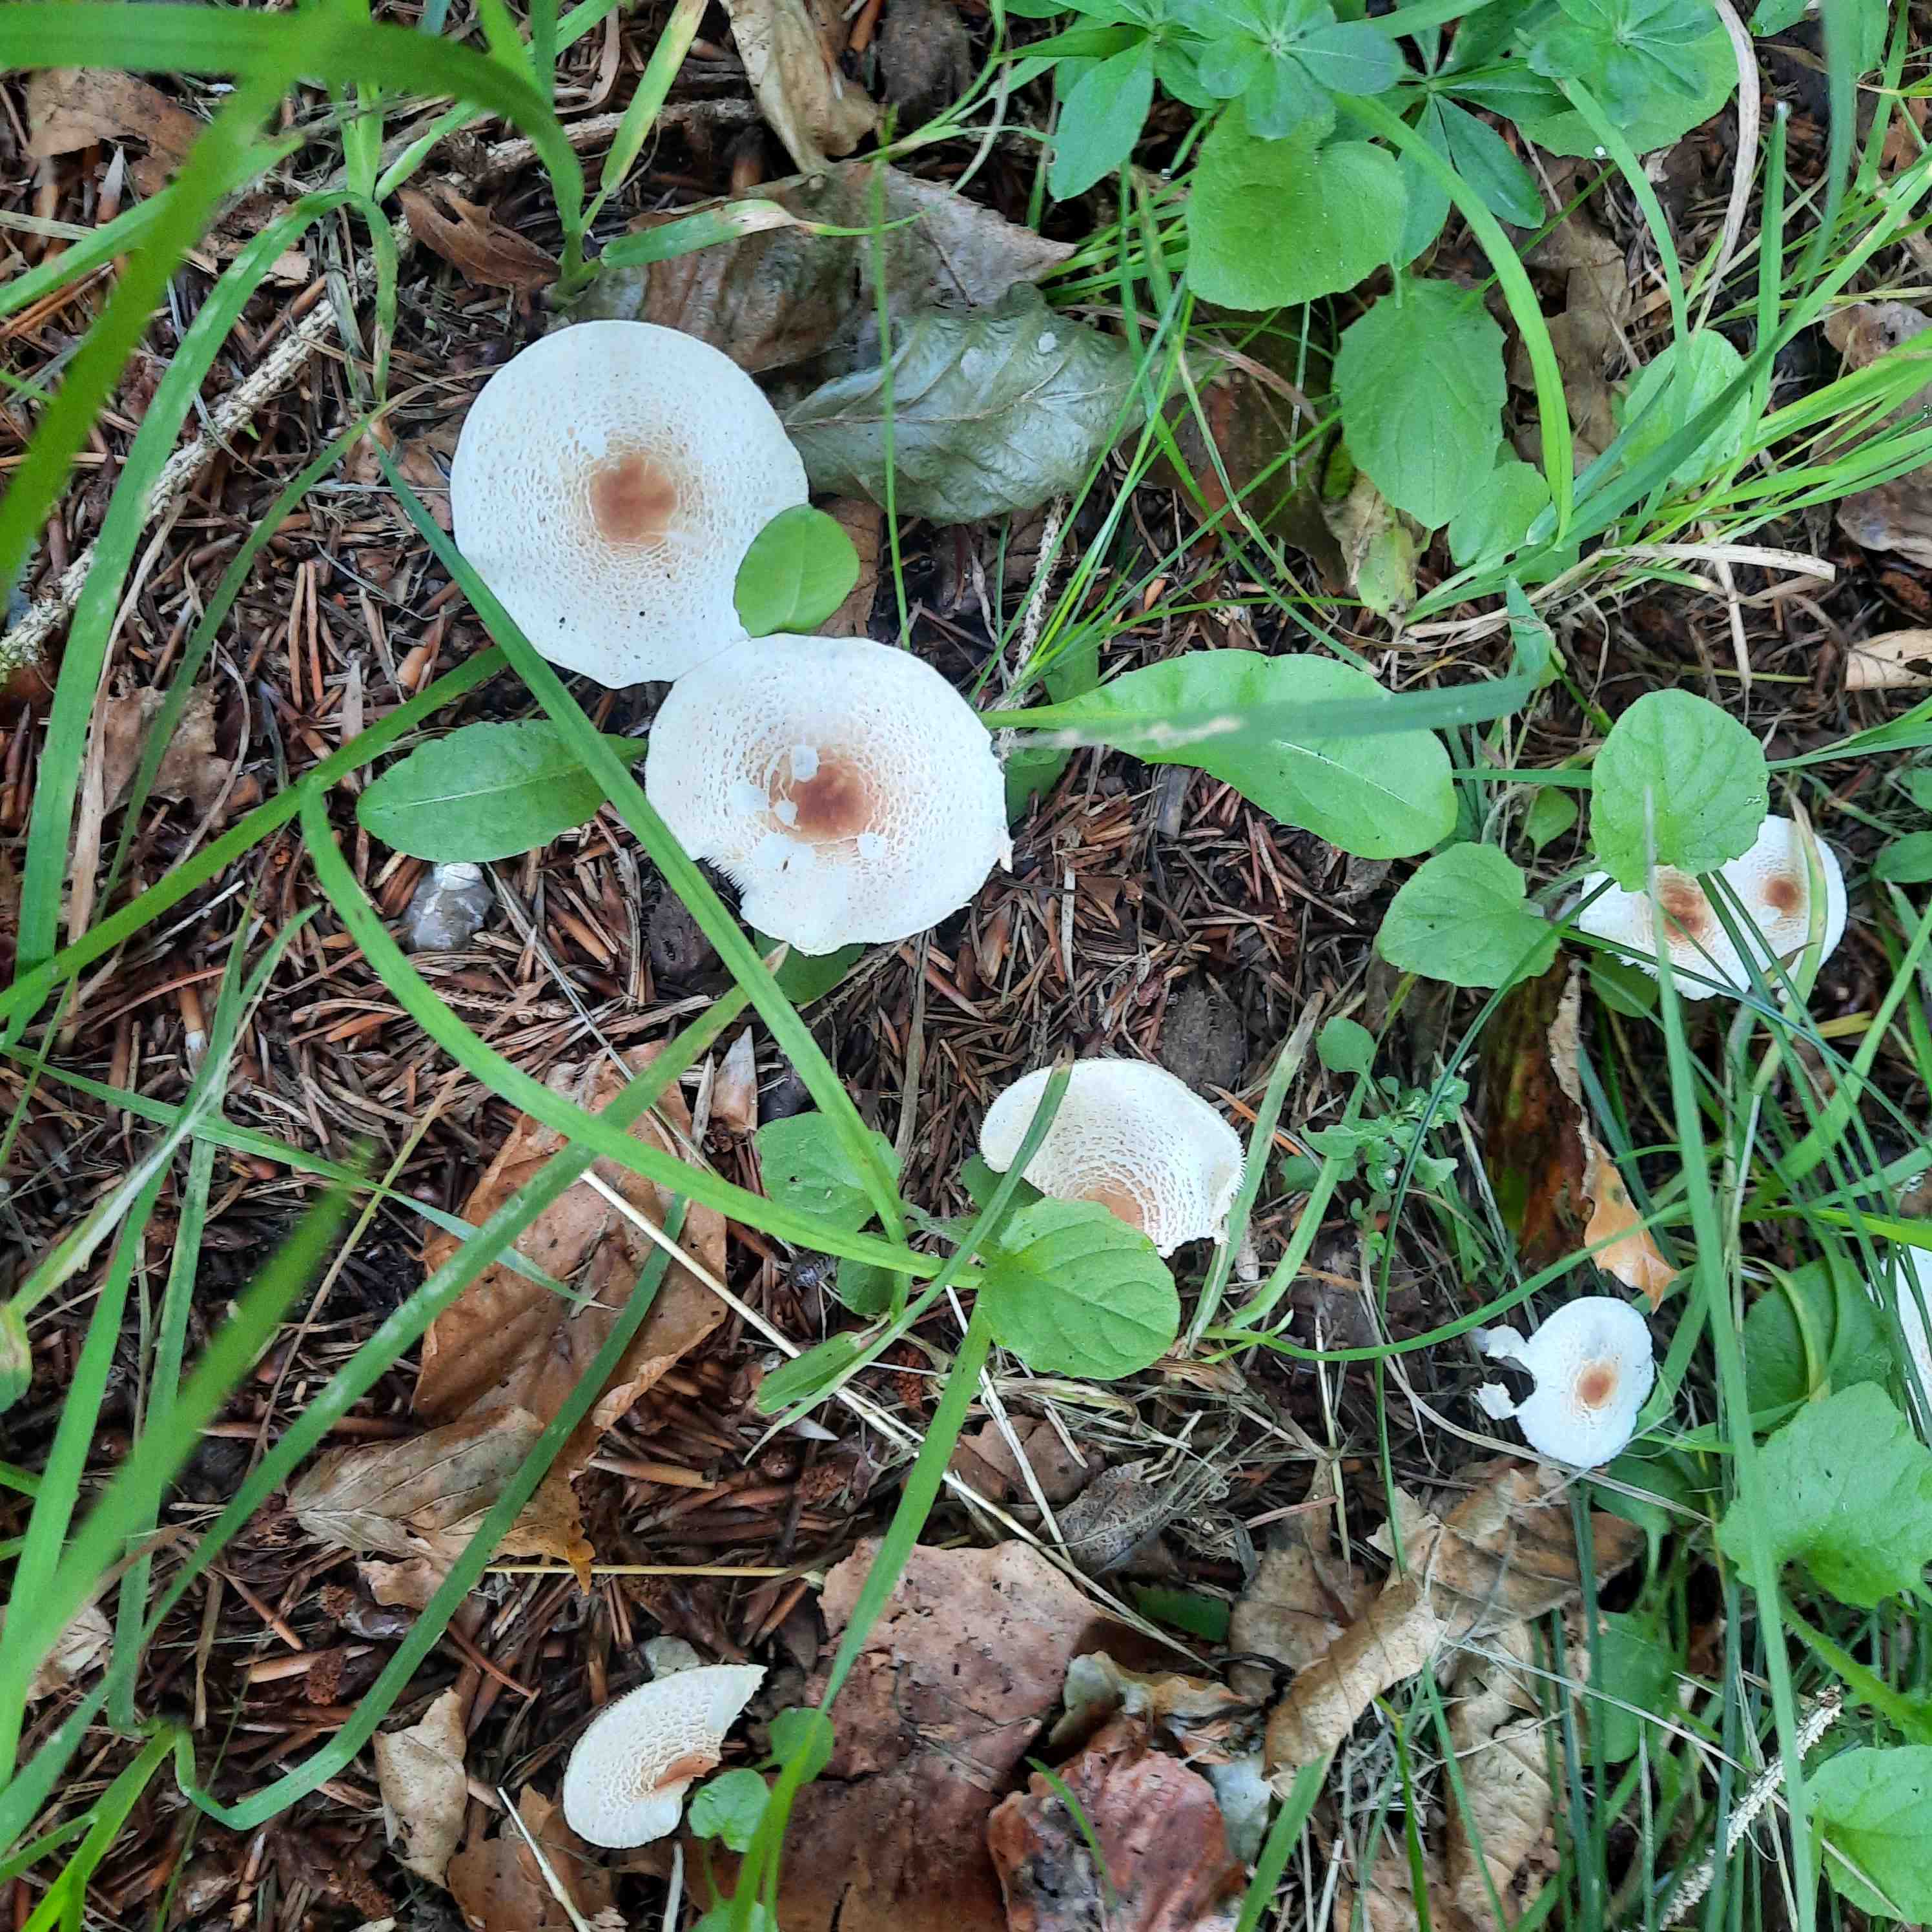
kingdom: Fungi
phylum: Basidiomycota
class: Agaricomycetes
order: Agaricales
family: Agaricaceae
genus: Lepiota
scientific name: Lepiota cristata
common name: stinkende parasolhat
